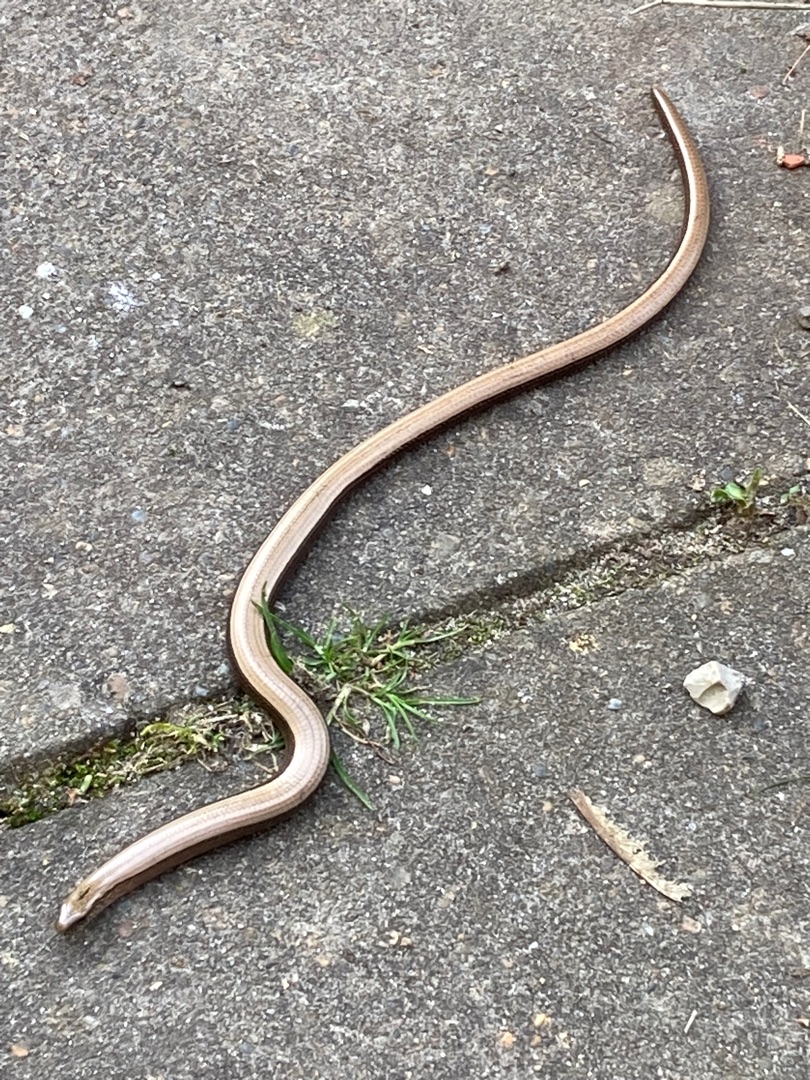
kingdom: Animalia
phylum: Chordata
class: Squamata
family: Anguidae
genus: Anguis
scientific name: Anguis fragilis
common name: Stålorm
